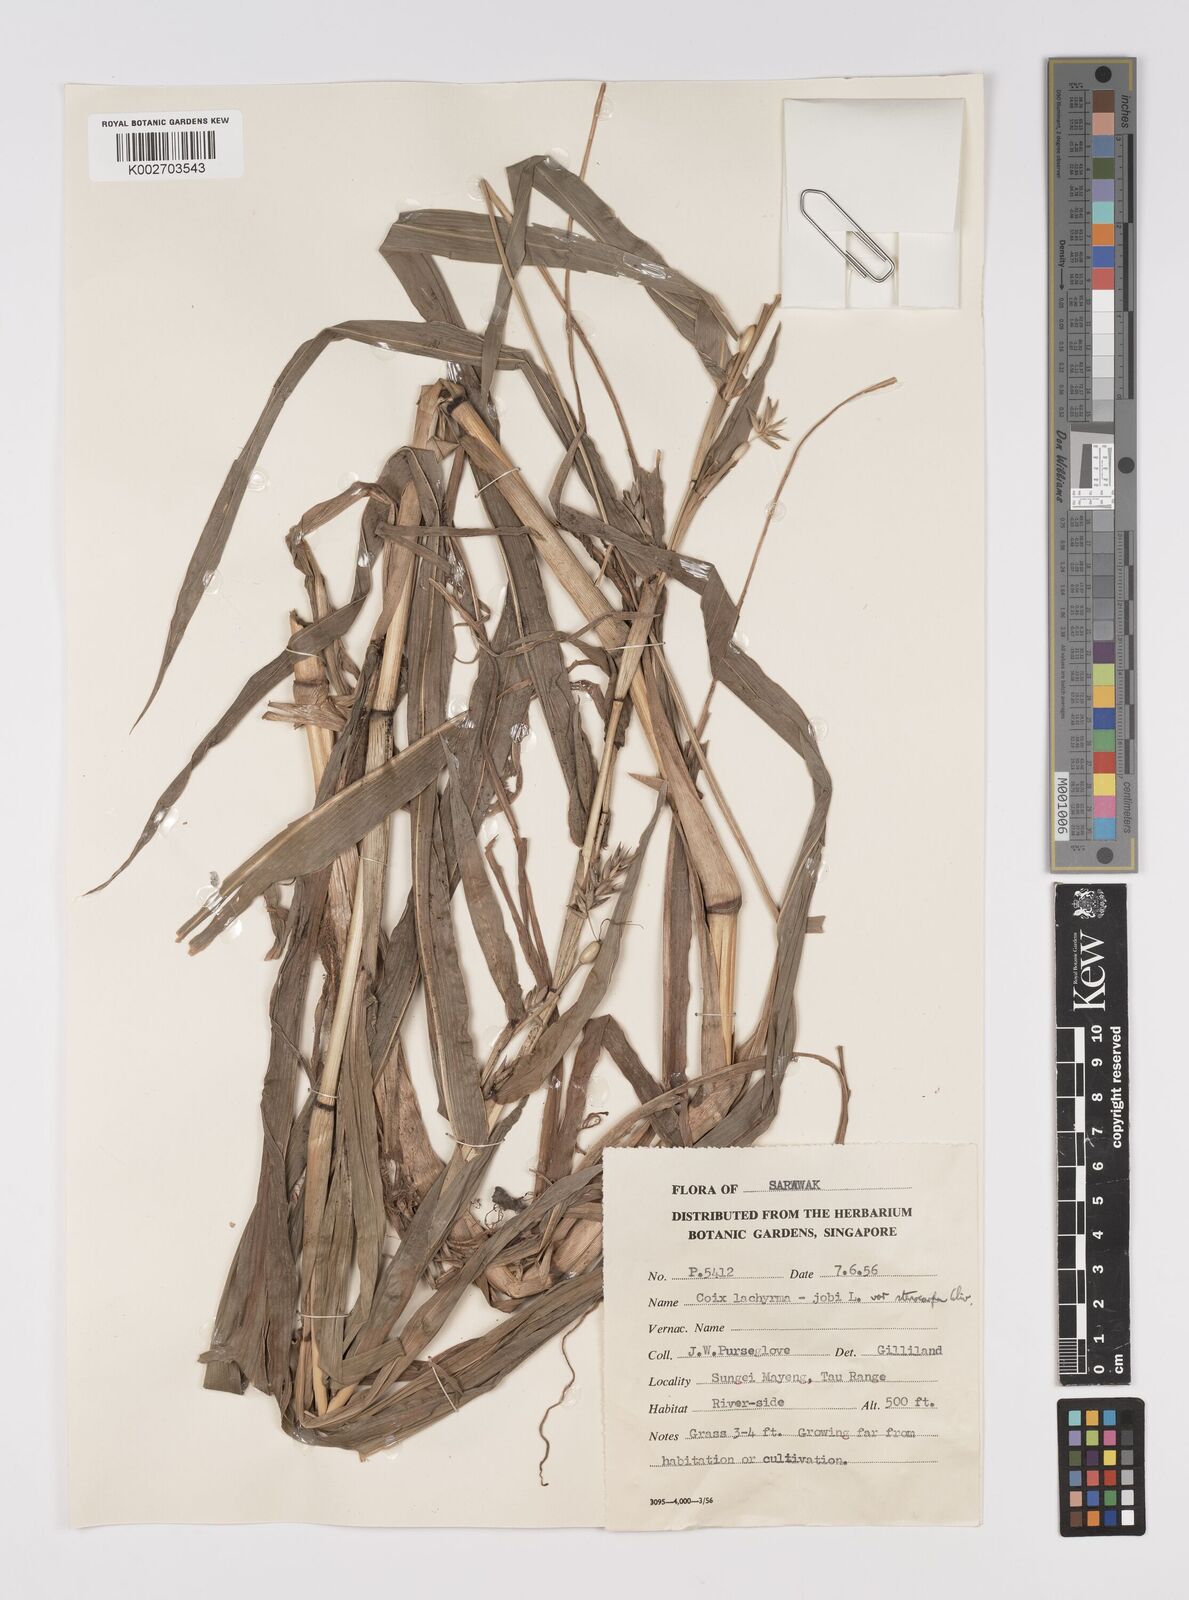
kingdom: Plantae
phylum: Tracheophyta
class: Liliopsida
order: Poales
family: Poaceae
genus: Coix
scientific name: Coix lacryma-jobi
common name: Job's tears
